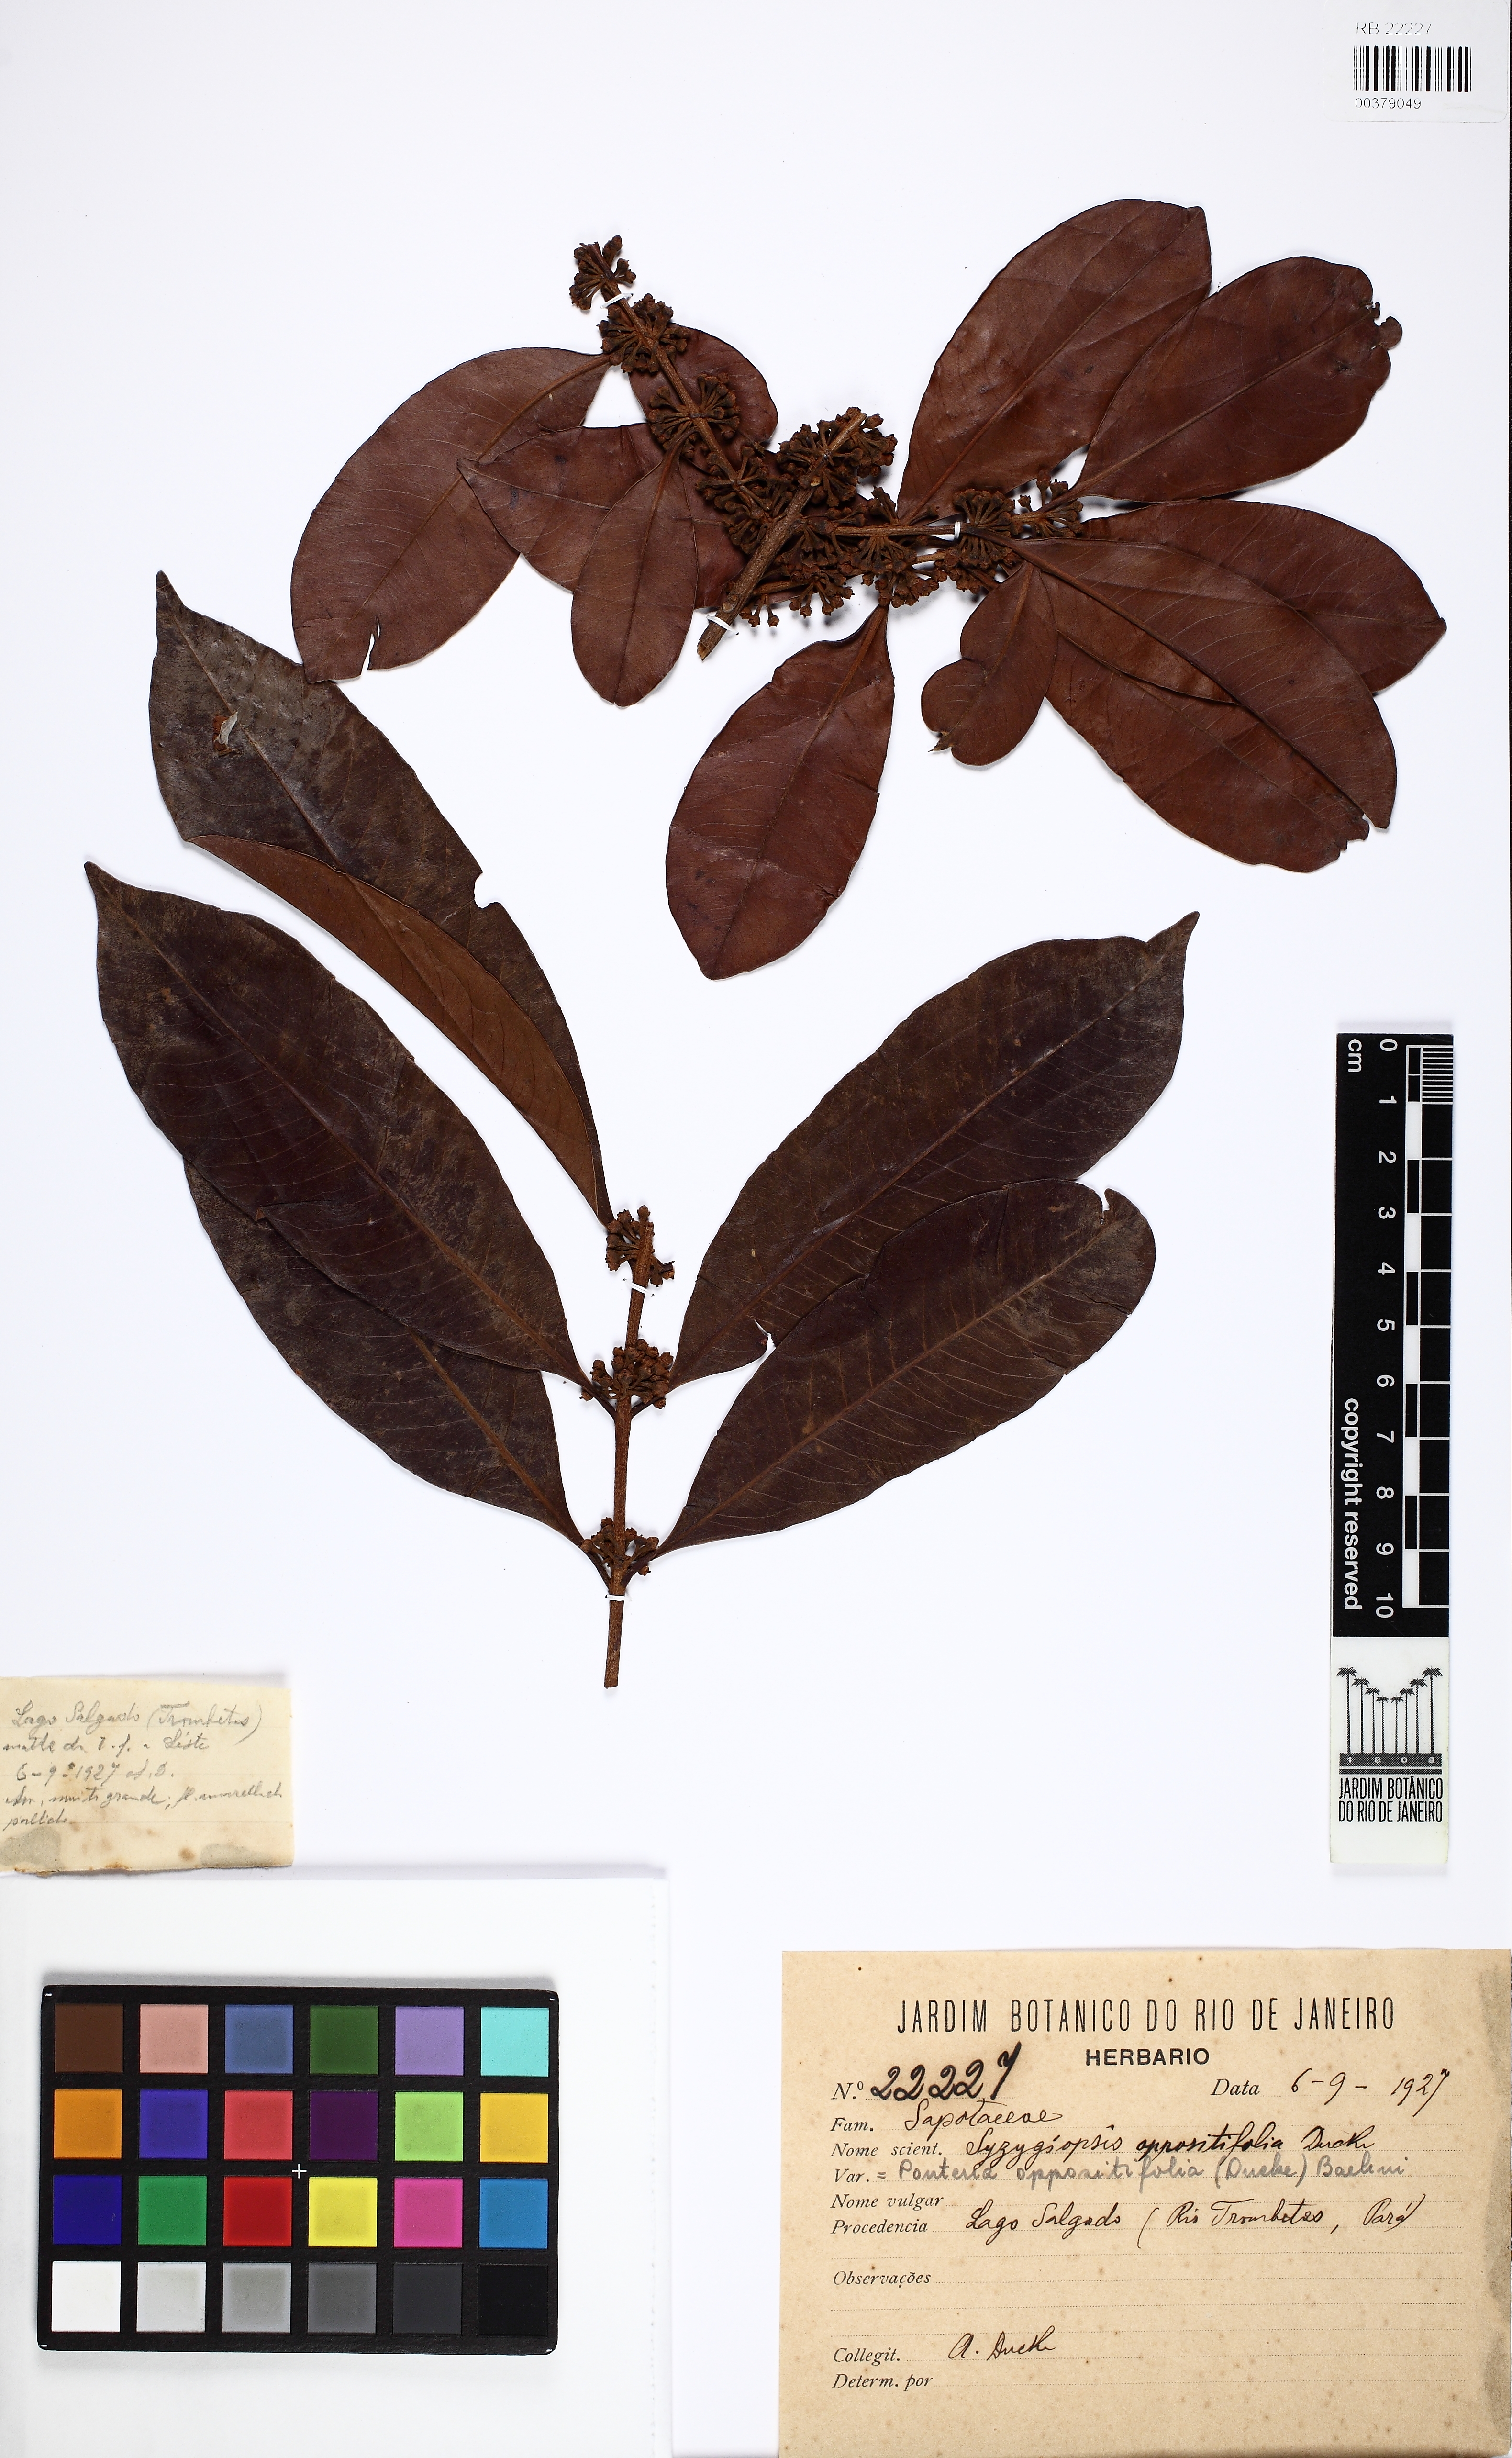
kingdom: Plantae
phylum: Tracheophyta
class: Magnoliopsida
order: Ericales
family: Sapotaceae
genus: Pouteria
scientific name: Pouteria oppositifolia
